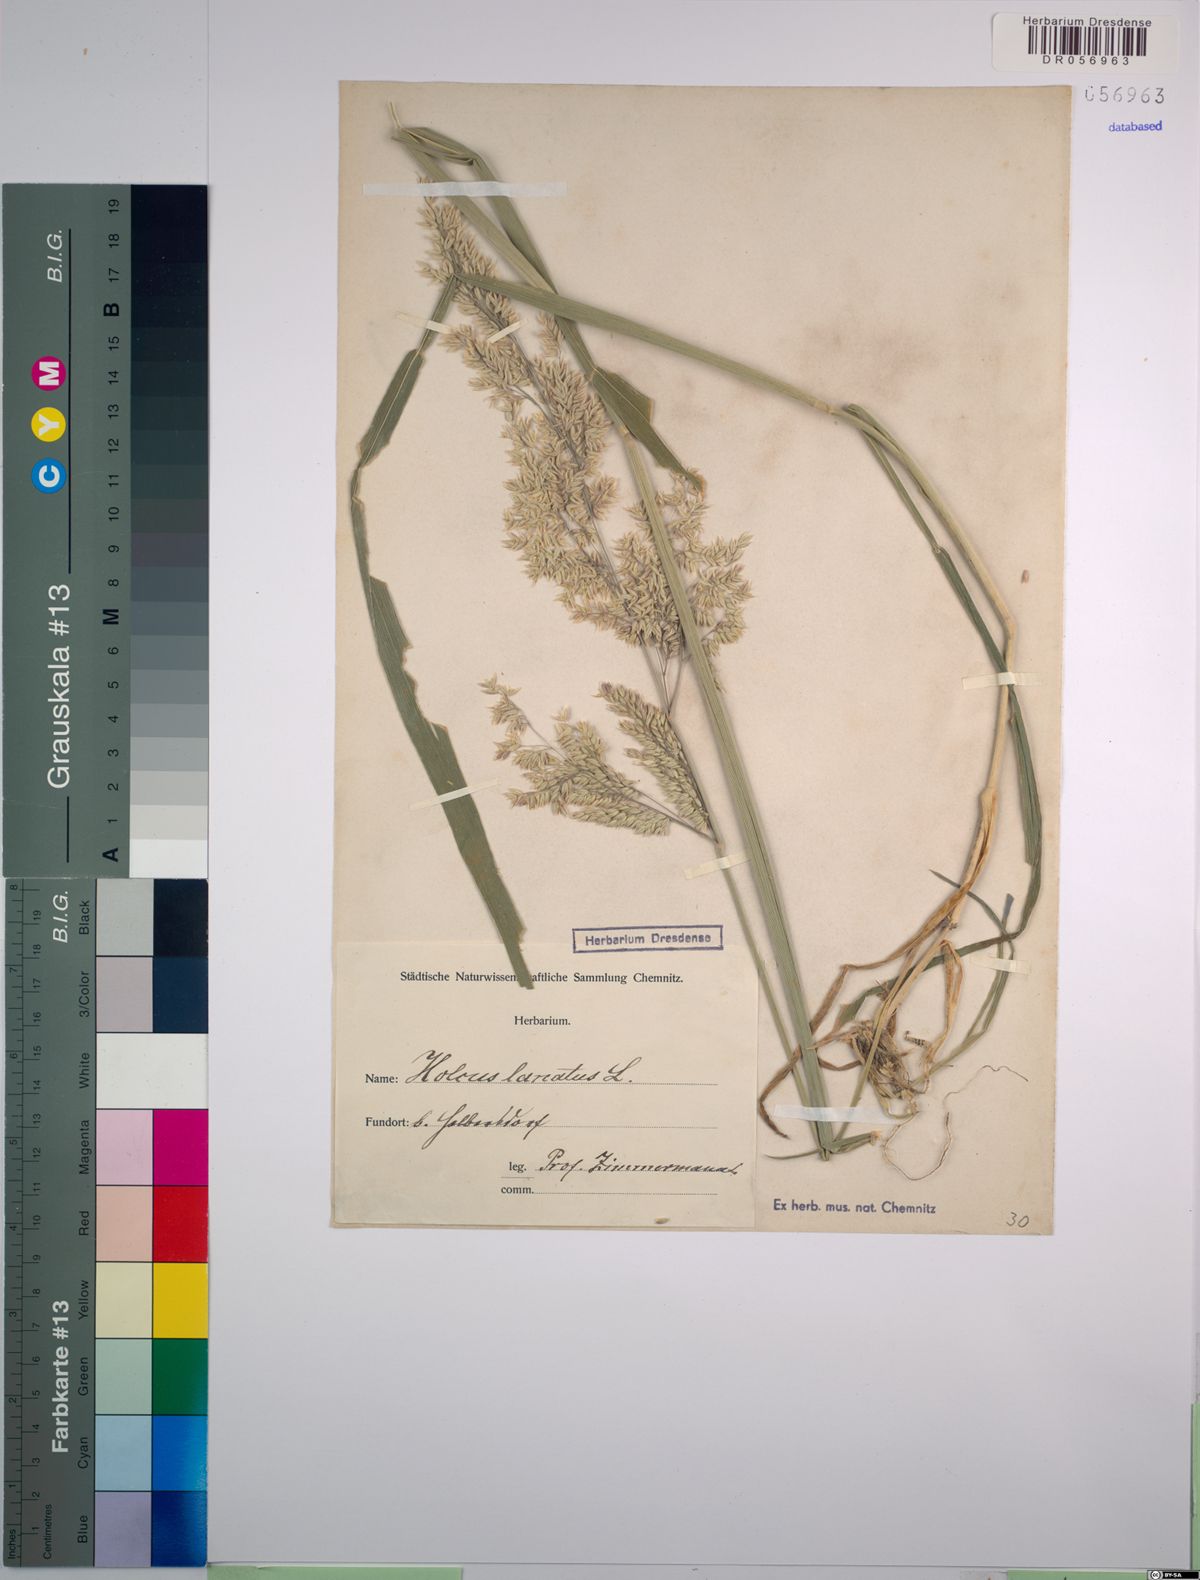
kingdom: Plantae
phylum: Tracheophyta
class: Liliopsida
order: Poales
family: Poaceae
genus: Holcus
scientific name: Holcus lanatus
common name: Yorkshire-fog
